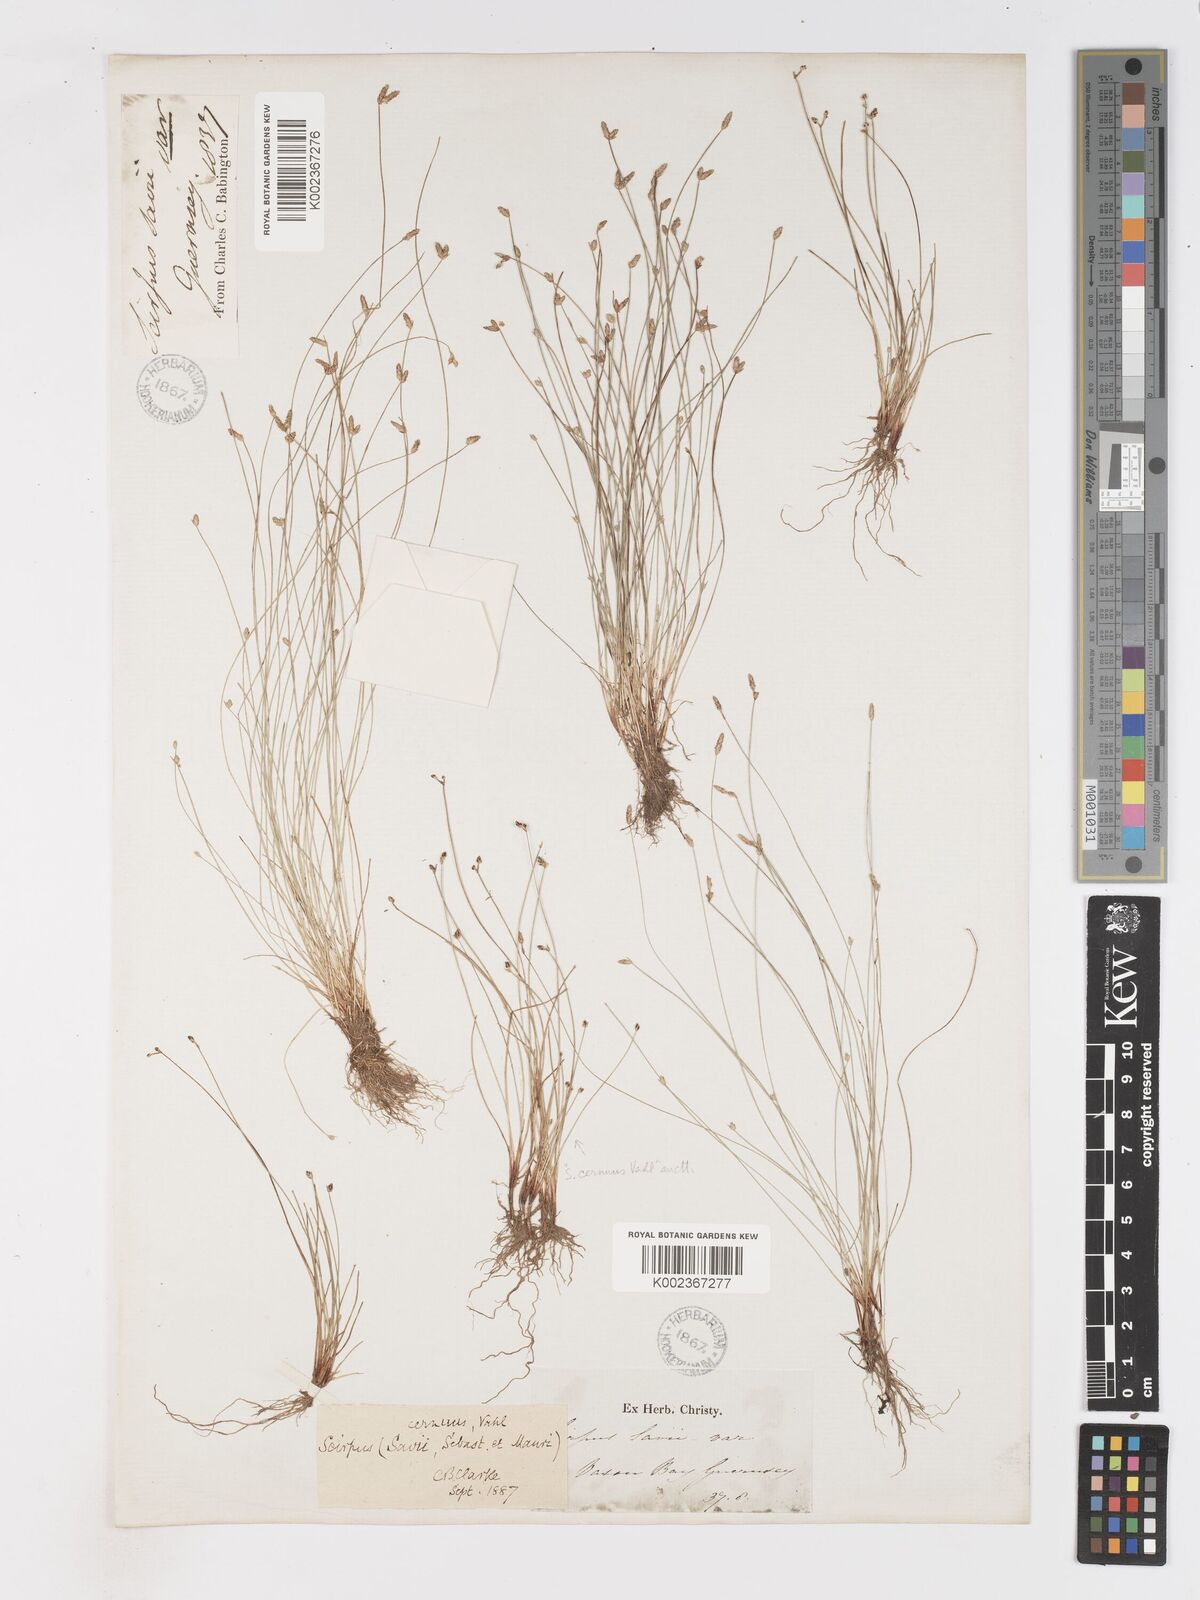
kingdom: Plantae
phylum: Tracheophyta
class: Liliopsida
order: Poales
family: Cyperaceae
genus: Isolepis
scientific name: Isolepis cernua
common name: Slender club-rush
